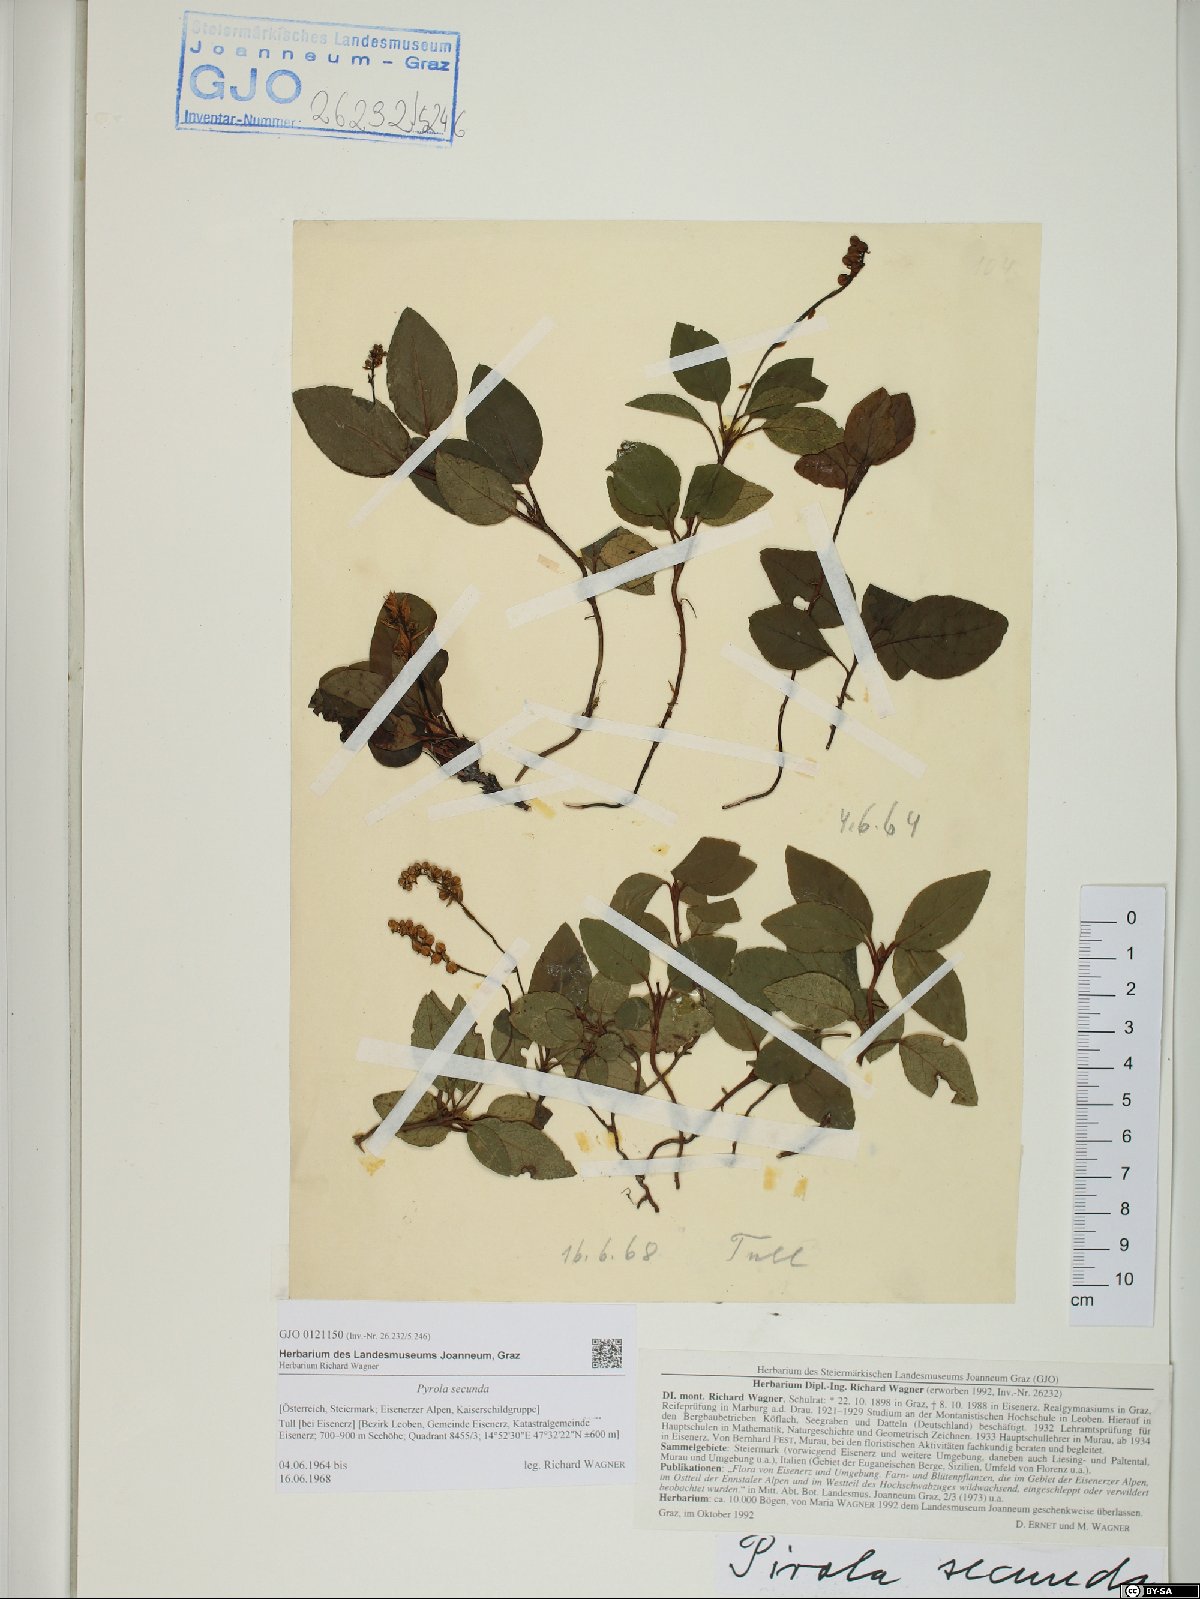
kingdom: Plantae
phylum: Tracheophyta
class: Magnoliopsida
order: Ericales
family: Ericaceae
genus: Orthilia
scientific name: Orthilia secunda
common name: One-sided orthilia
